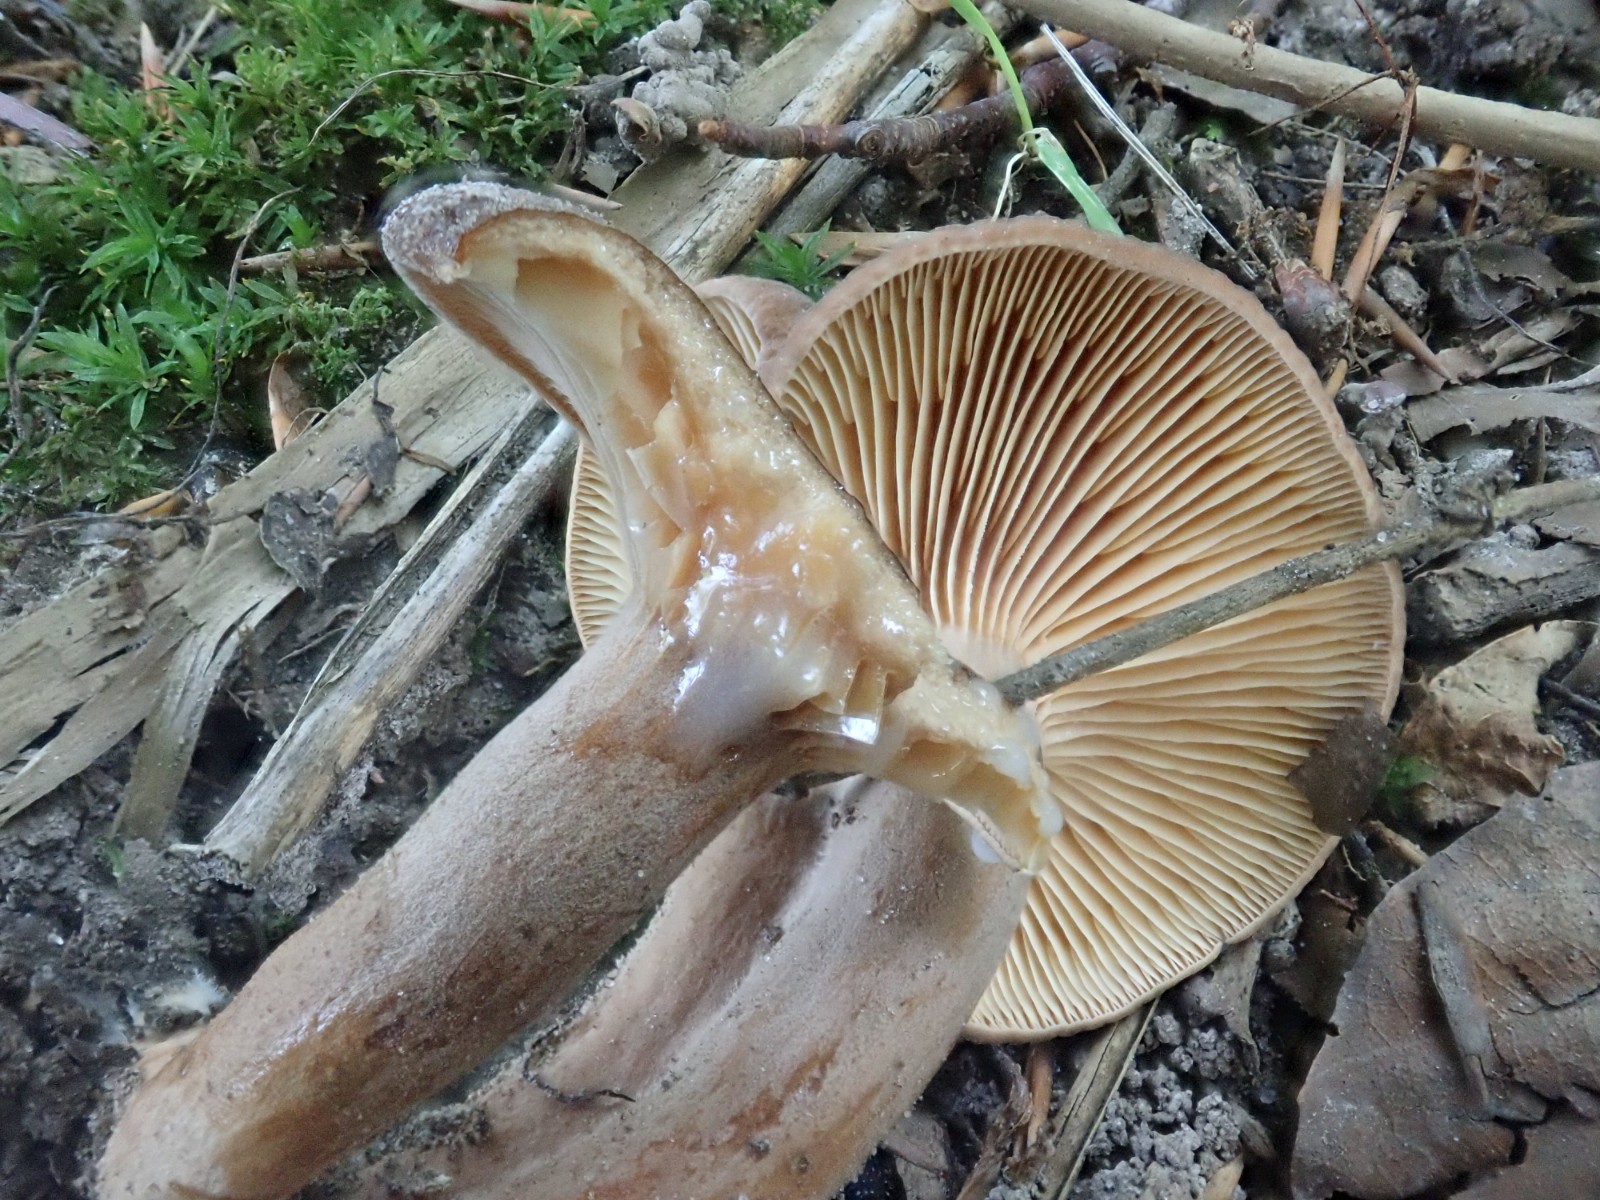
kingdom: Fungi
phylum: Basidiomycota
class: Agaricomycetes
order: Russulales
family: Russulaceae
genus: Lactarius
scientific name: Lactarius serifluus
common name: tæge-mælkehat
